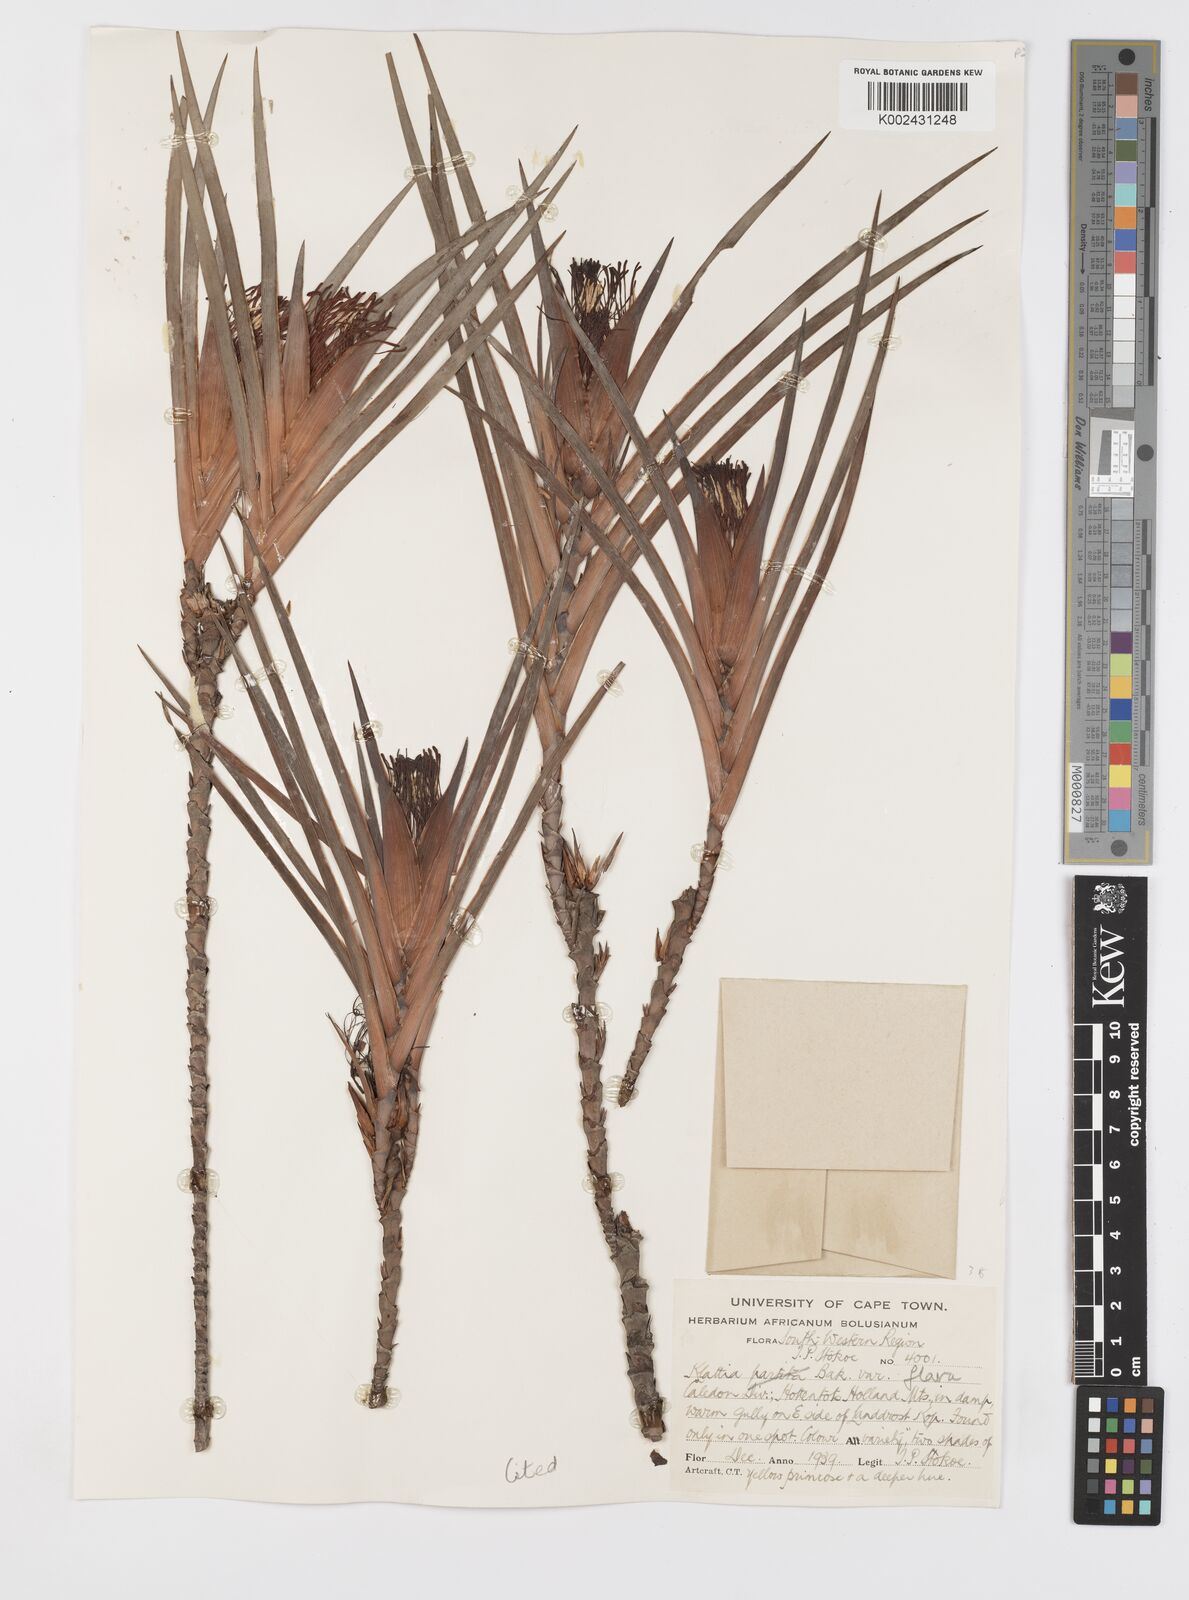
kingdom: Plantae
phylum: Tracheophyta
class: Liliopsida
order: Asparagales
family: Iridaceae
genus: Klattia
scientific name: Klattia flava
